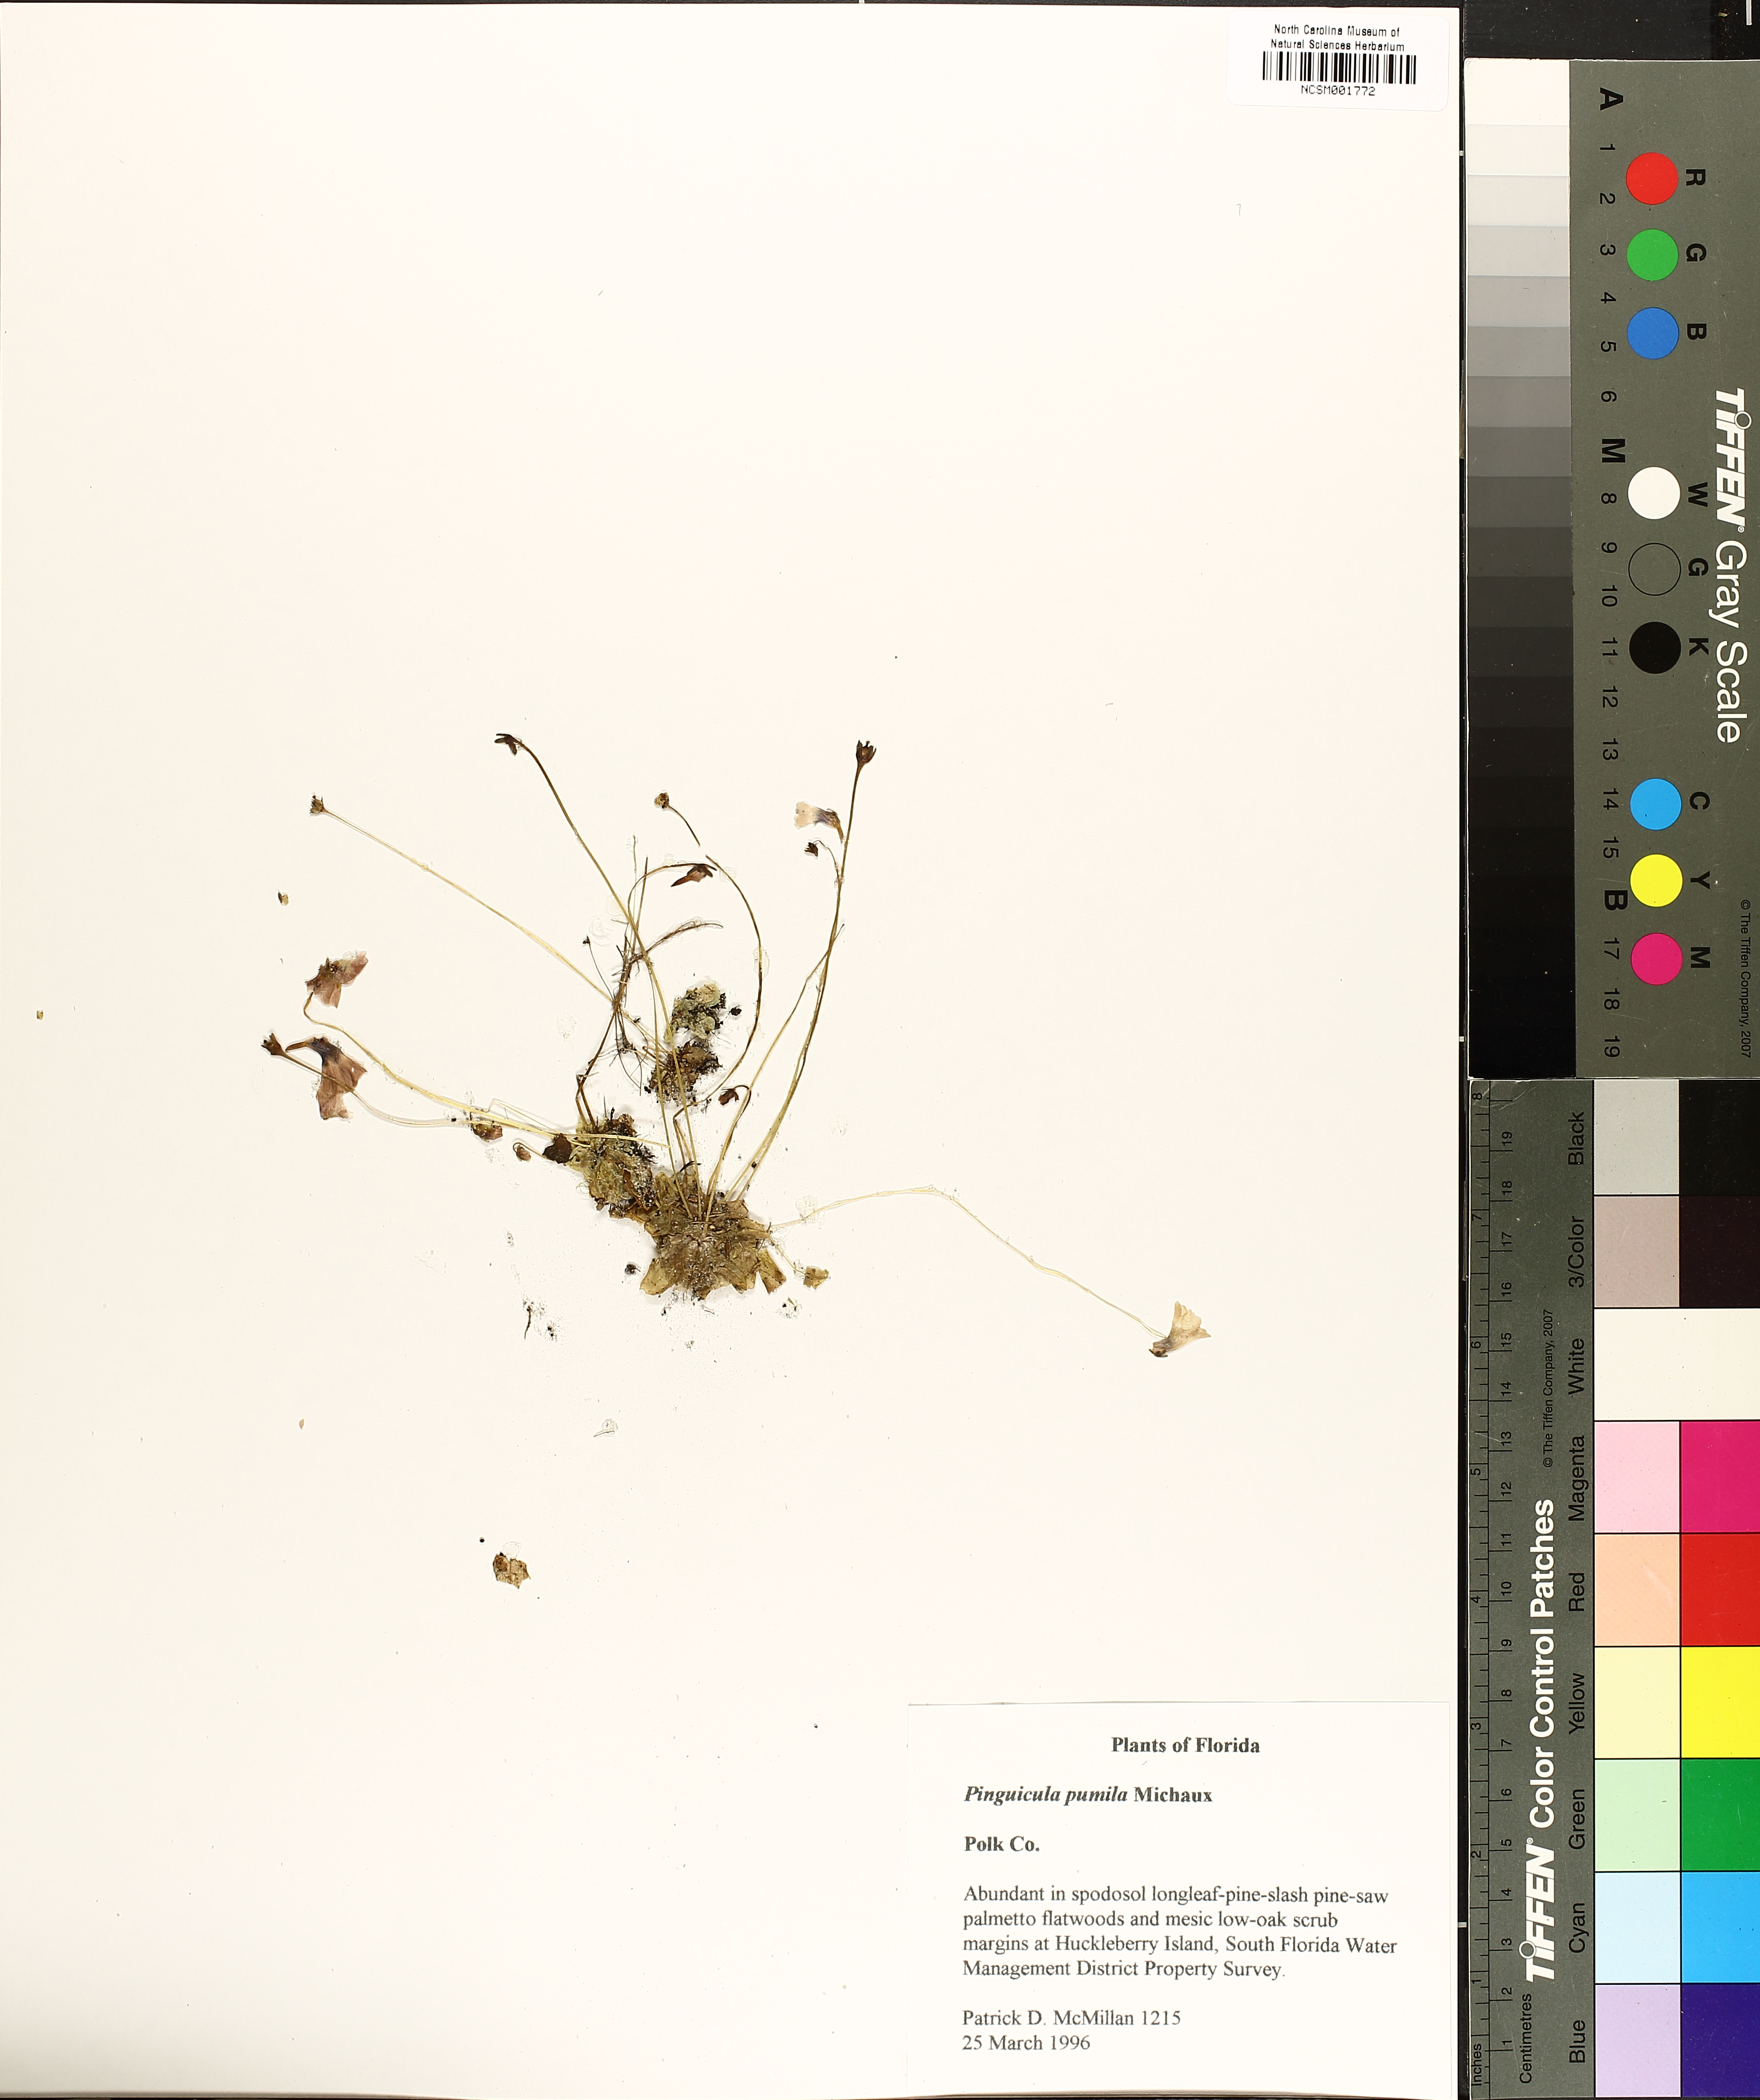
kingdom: Plantae
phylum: Tracheophyta
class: Magnoliopsida
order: Lamiales
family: Lentibulariaceae
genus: Pinguicula
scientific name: Pinguicula pumila
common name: Small butterwort
